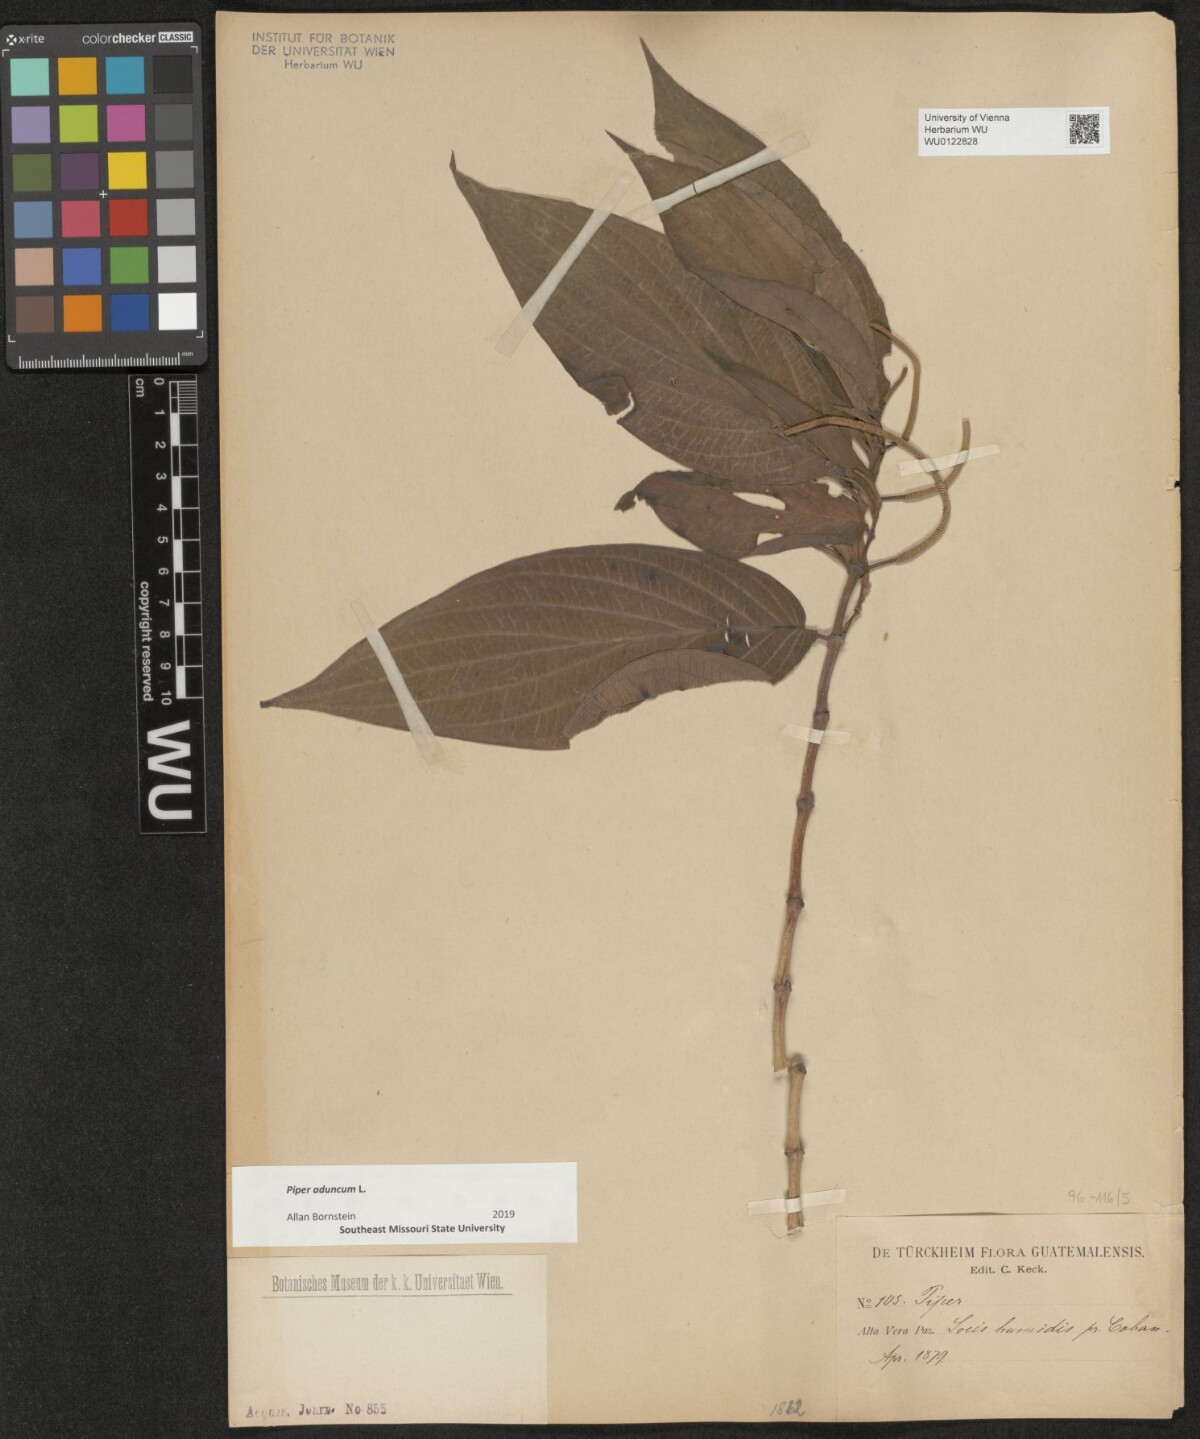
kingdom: Plantae
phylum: Tracheophyta
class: Magnoliopsida
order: Piperales
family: Piperaceae
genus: Piper
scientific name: Piper aduncum
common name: Spiked pepper
